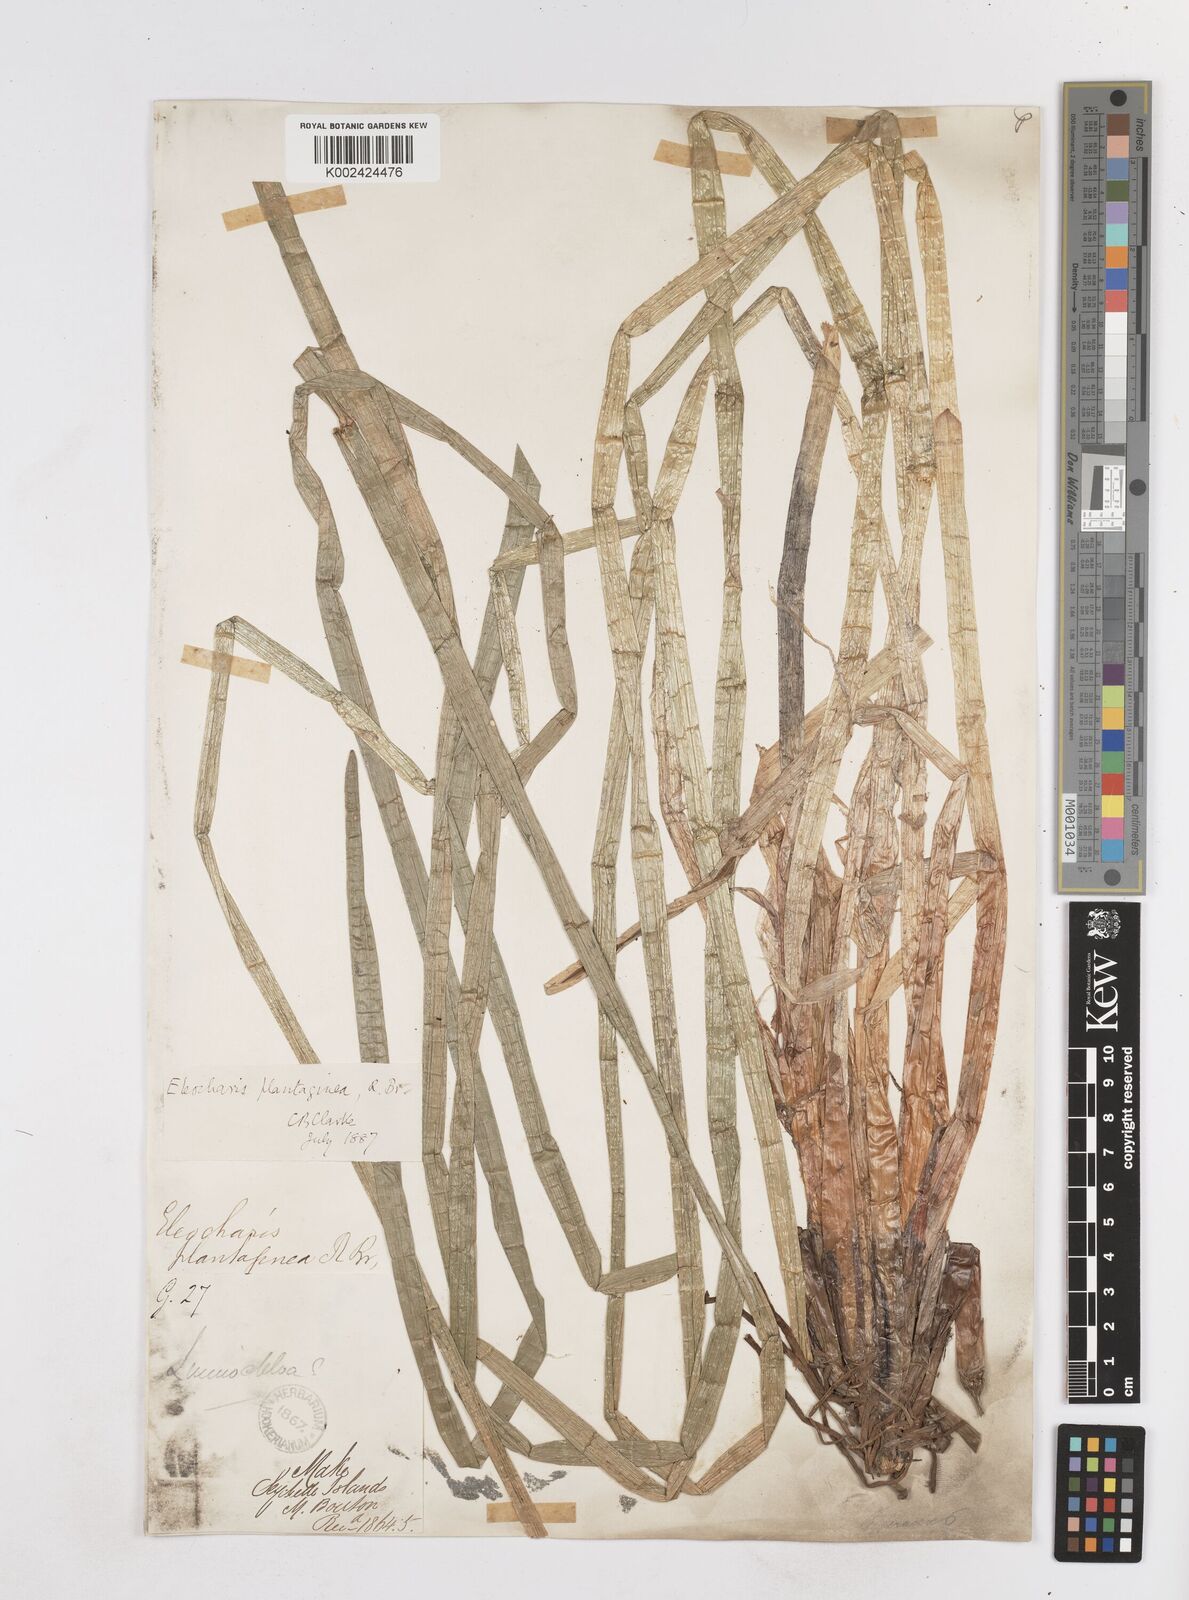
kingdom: Plantae
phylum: Tracheophyta
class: Liliopsida
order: Poales
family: Cyperaceae
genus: Eleocharis
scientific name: Eleocharis dulcis
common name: Chinese water chestnut
